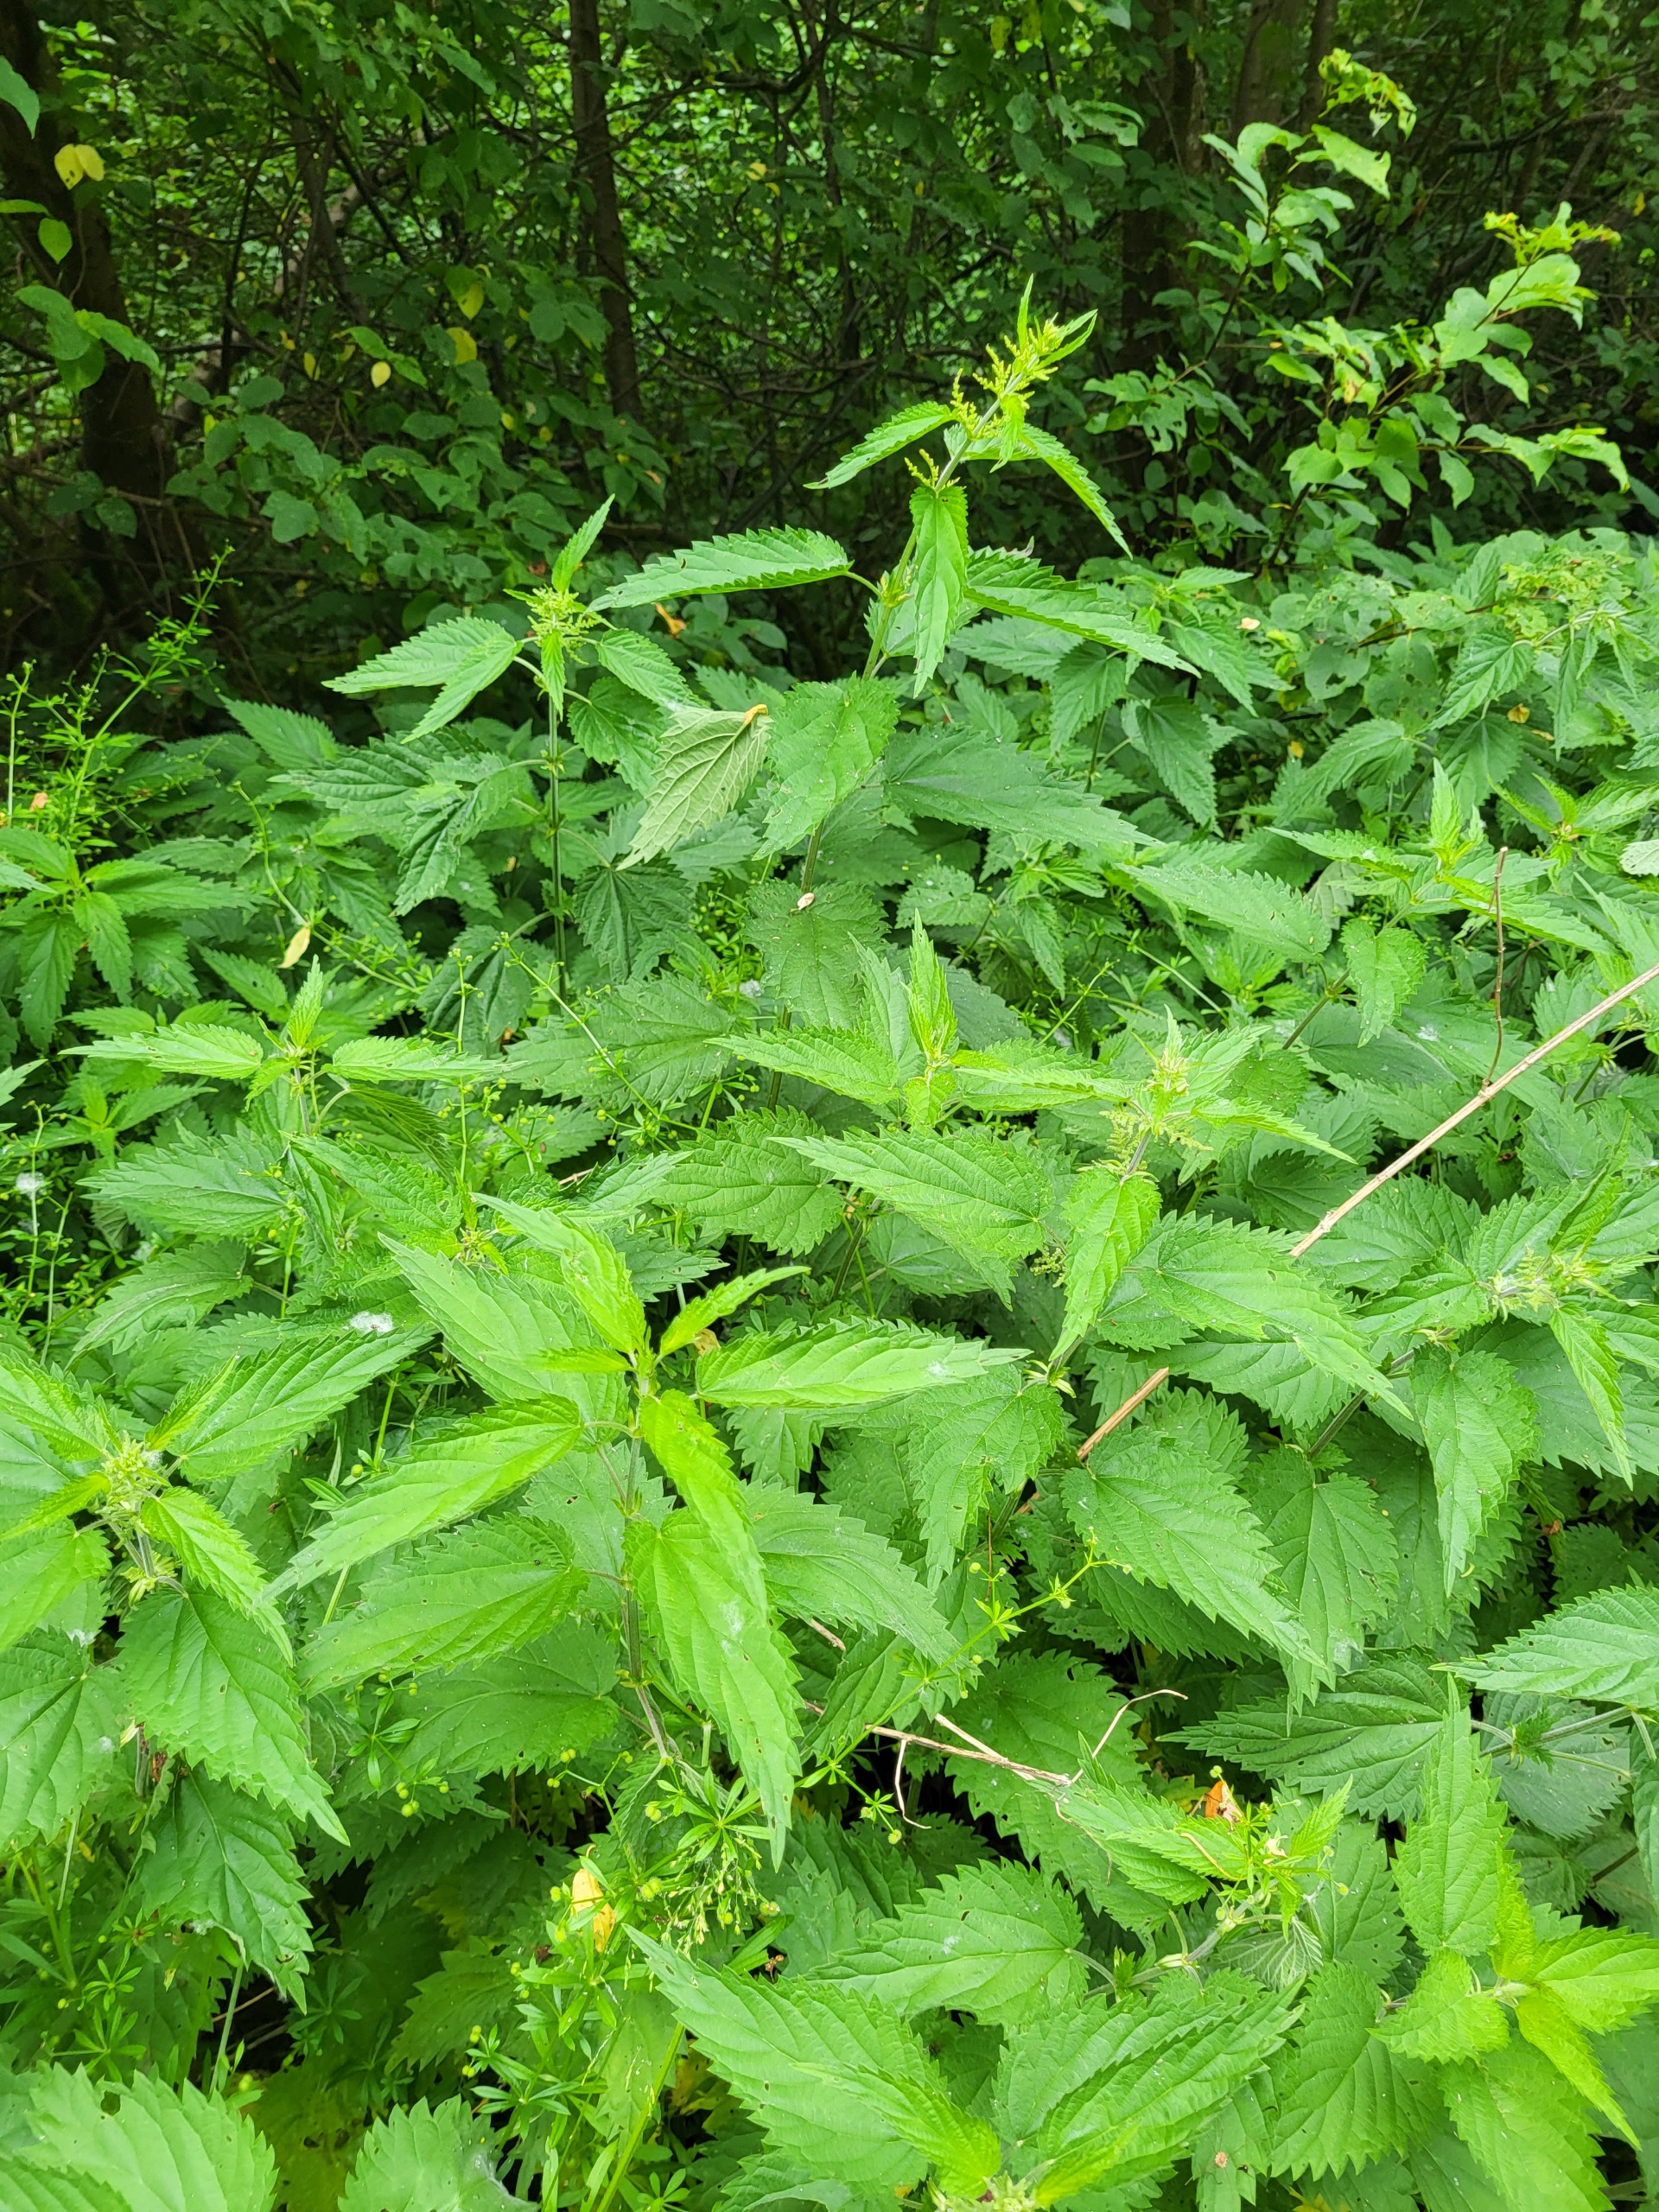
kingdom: Plantae
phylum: Tracheophyta
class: Magnoliopsida
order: Rosales
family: Urticaceae
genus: Urtica
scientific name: Urtica dioica
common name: Stor nælde
